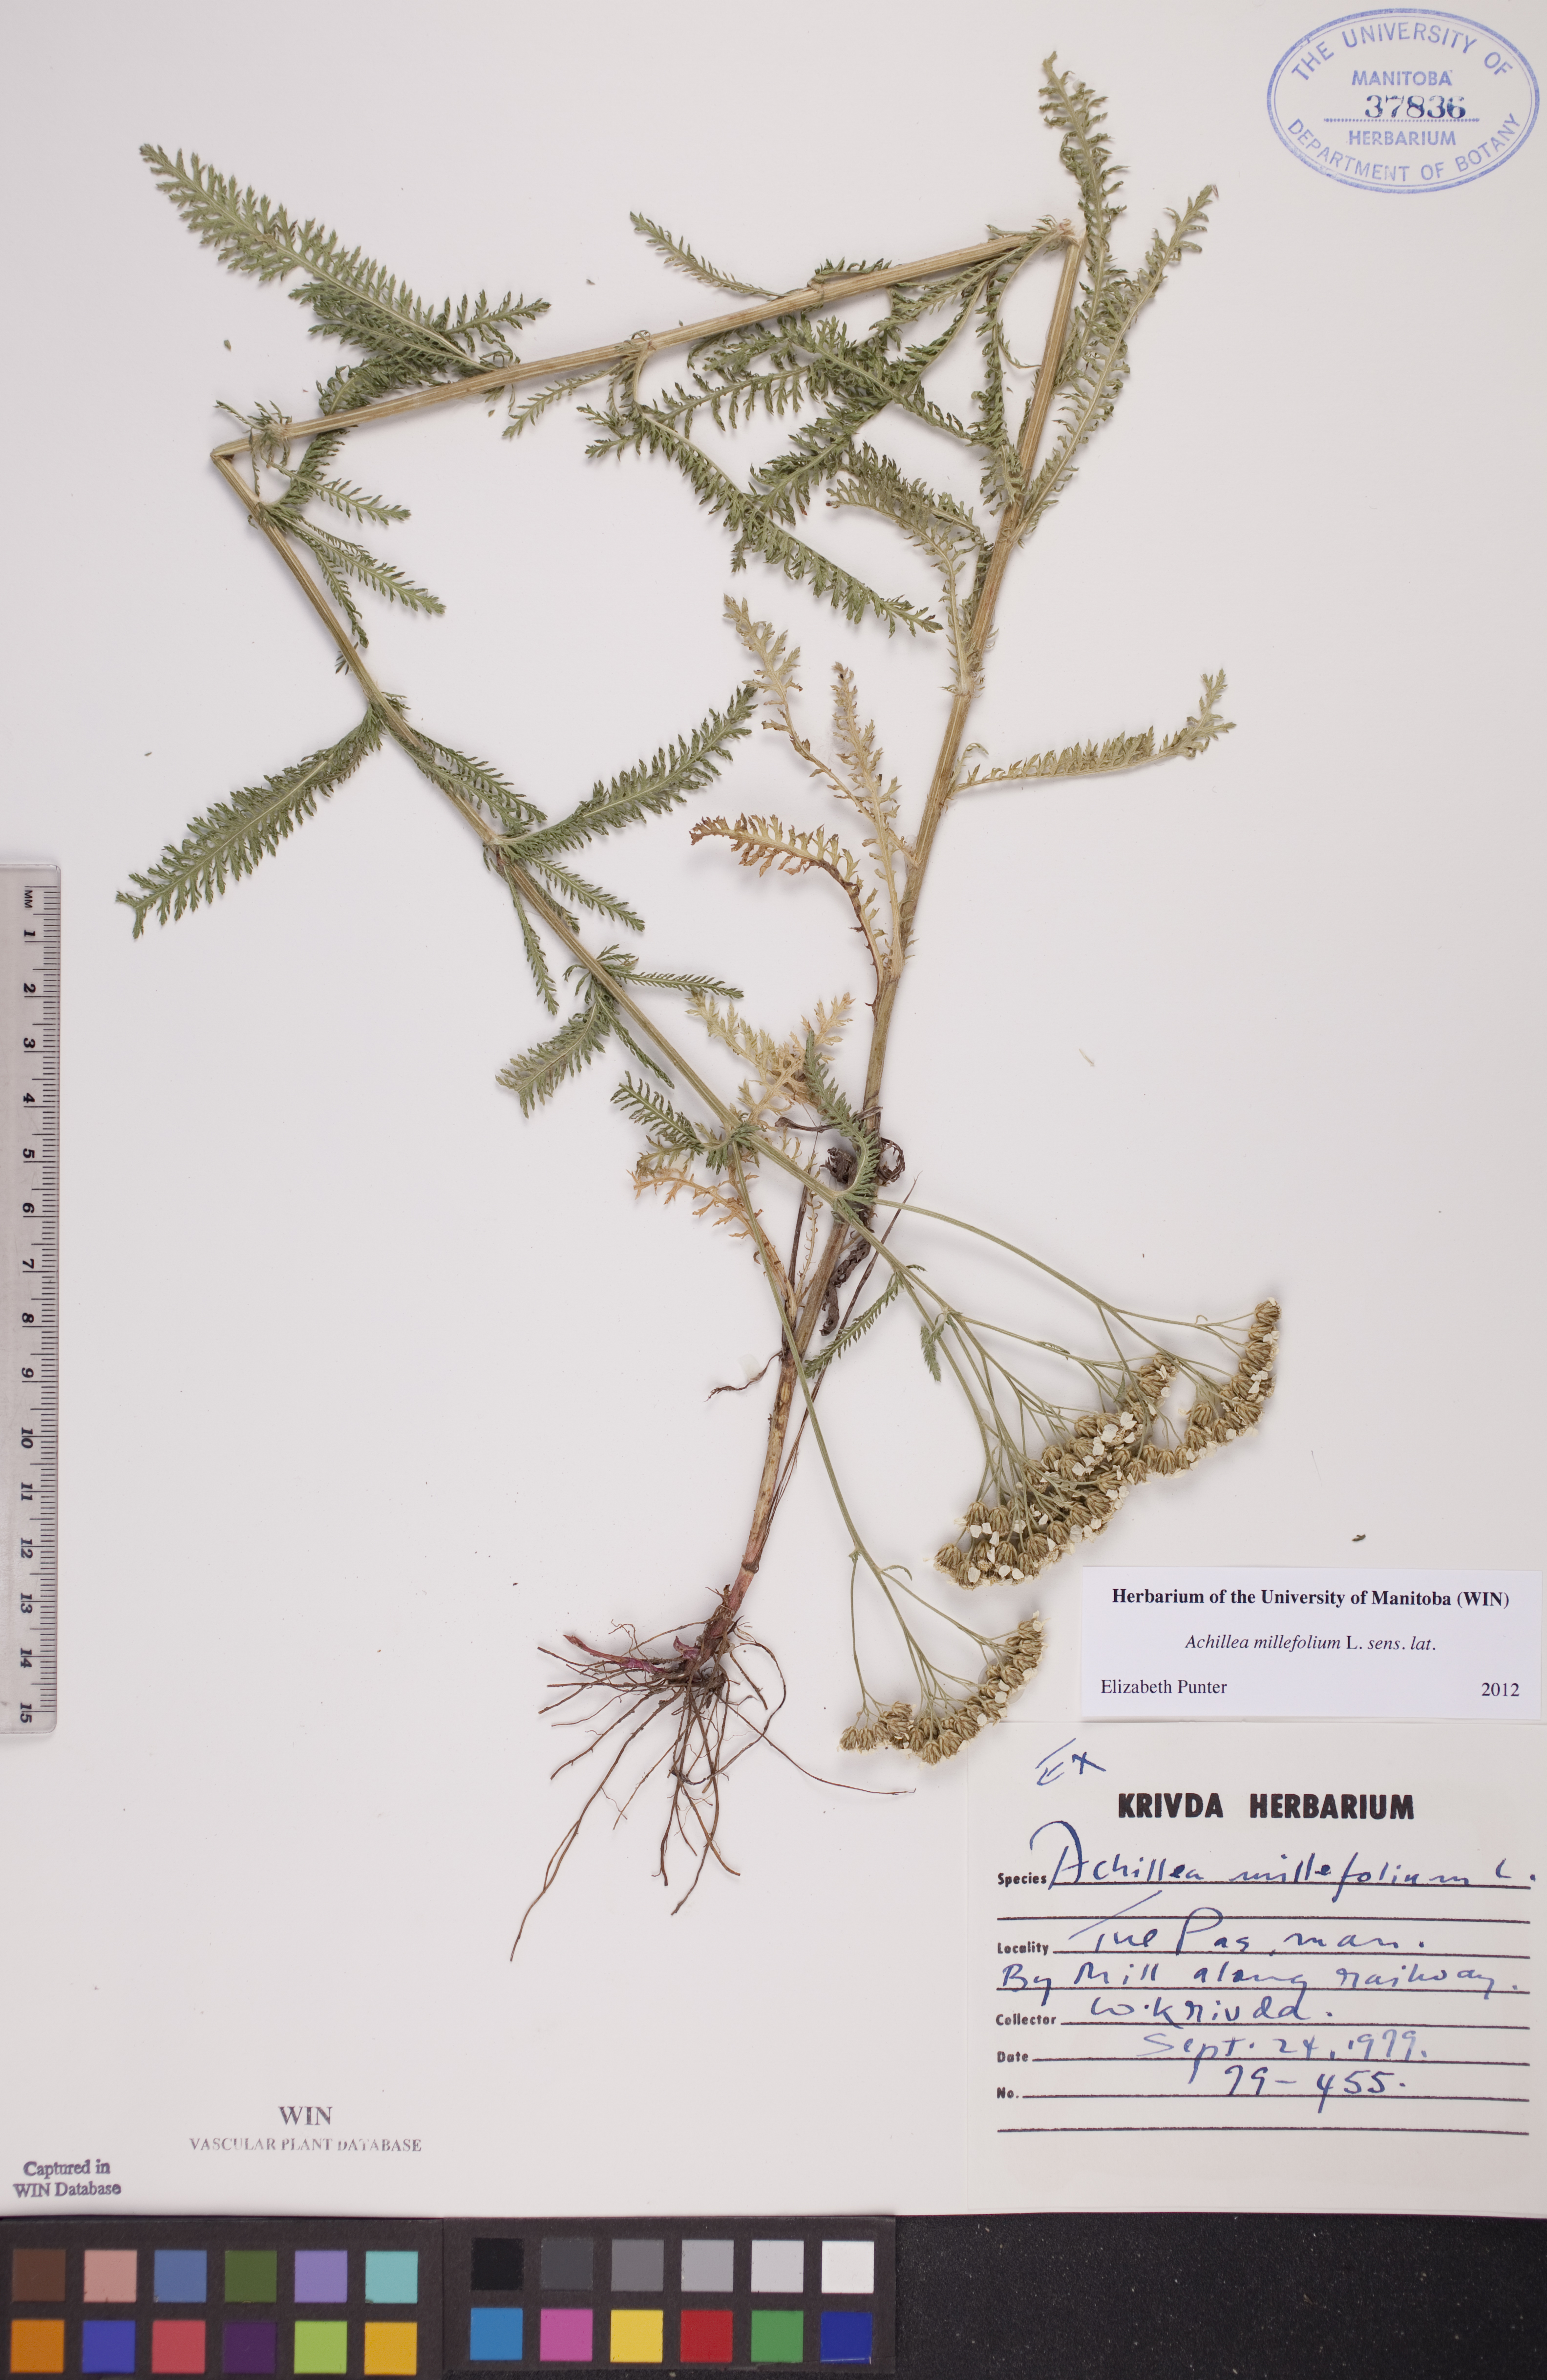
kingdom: Plantae
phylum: Tracheophyta
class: Magnoliopsida
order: Asterales
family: Asteraceae
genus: Achillea
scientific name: Achillea millefolium
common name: Yarrow
